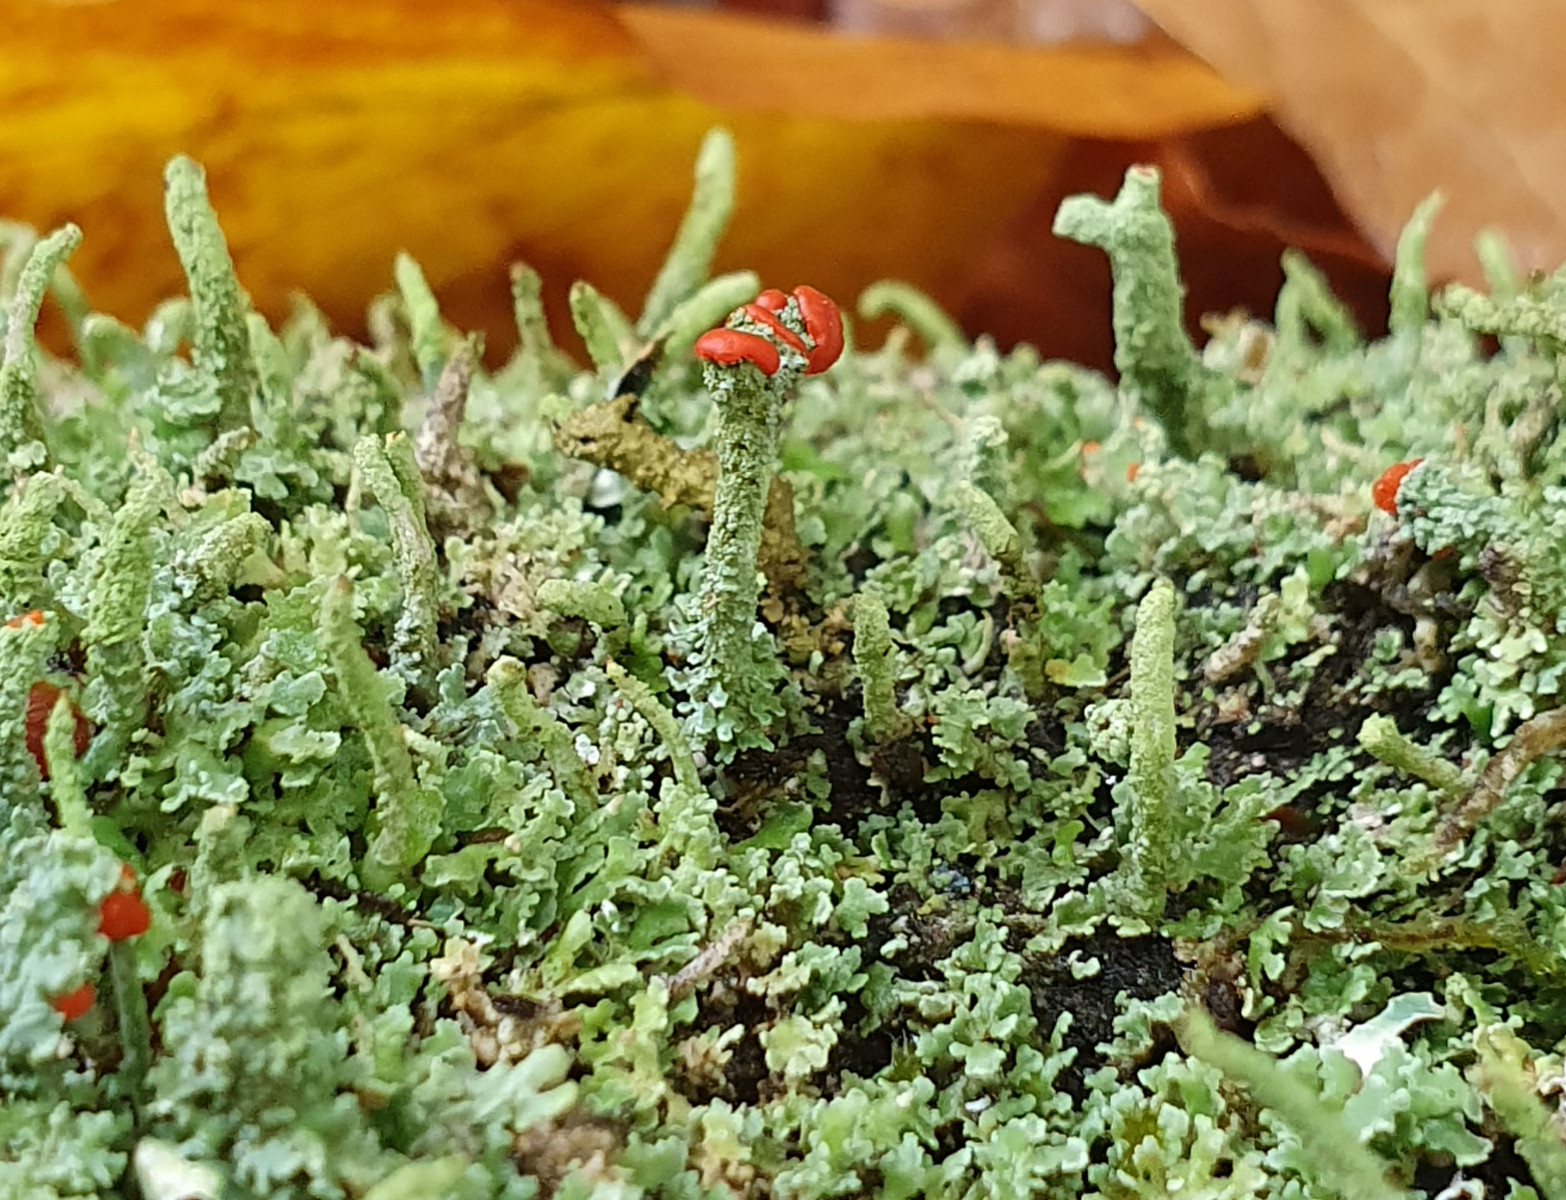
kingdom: Fungi
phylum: Ascomycota
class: Lecanoromycetes
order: Lecanorales
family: Cladoniaceae
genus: Cladonia
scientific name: Cladonia floerkeana
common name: lakrød bægerlav
